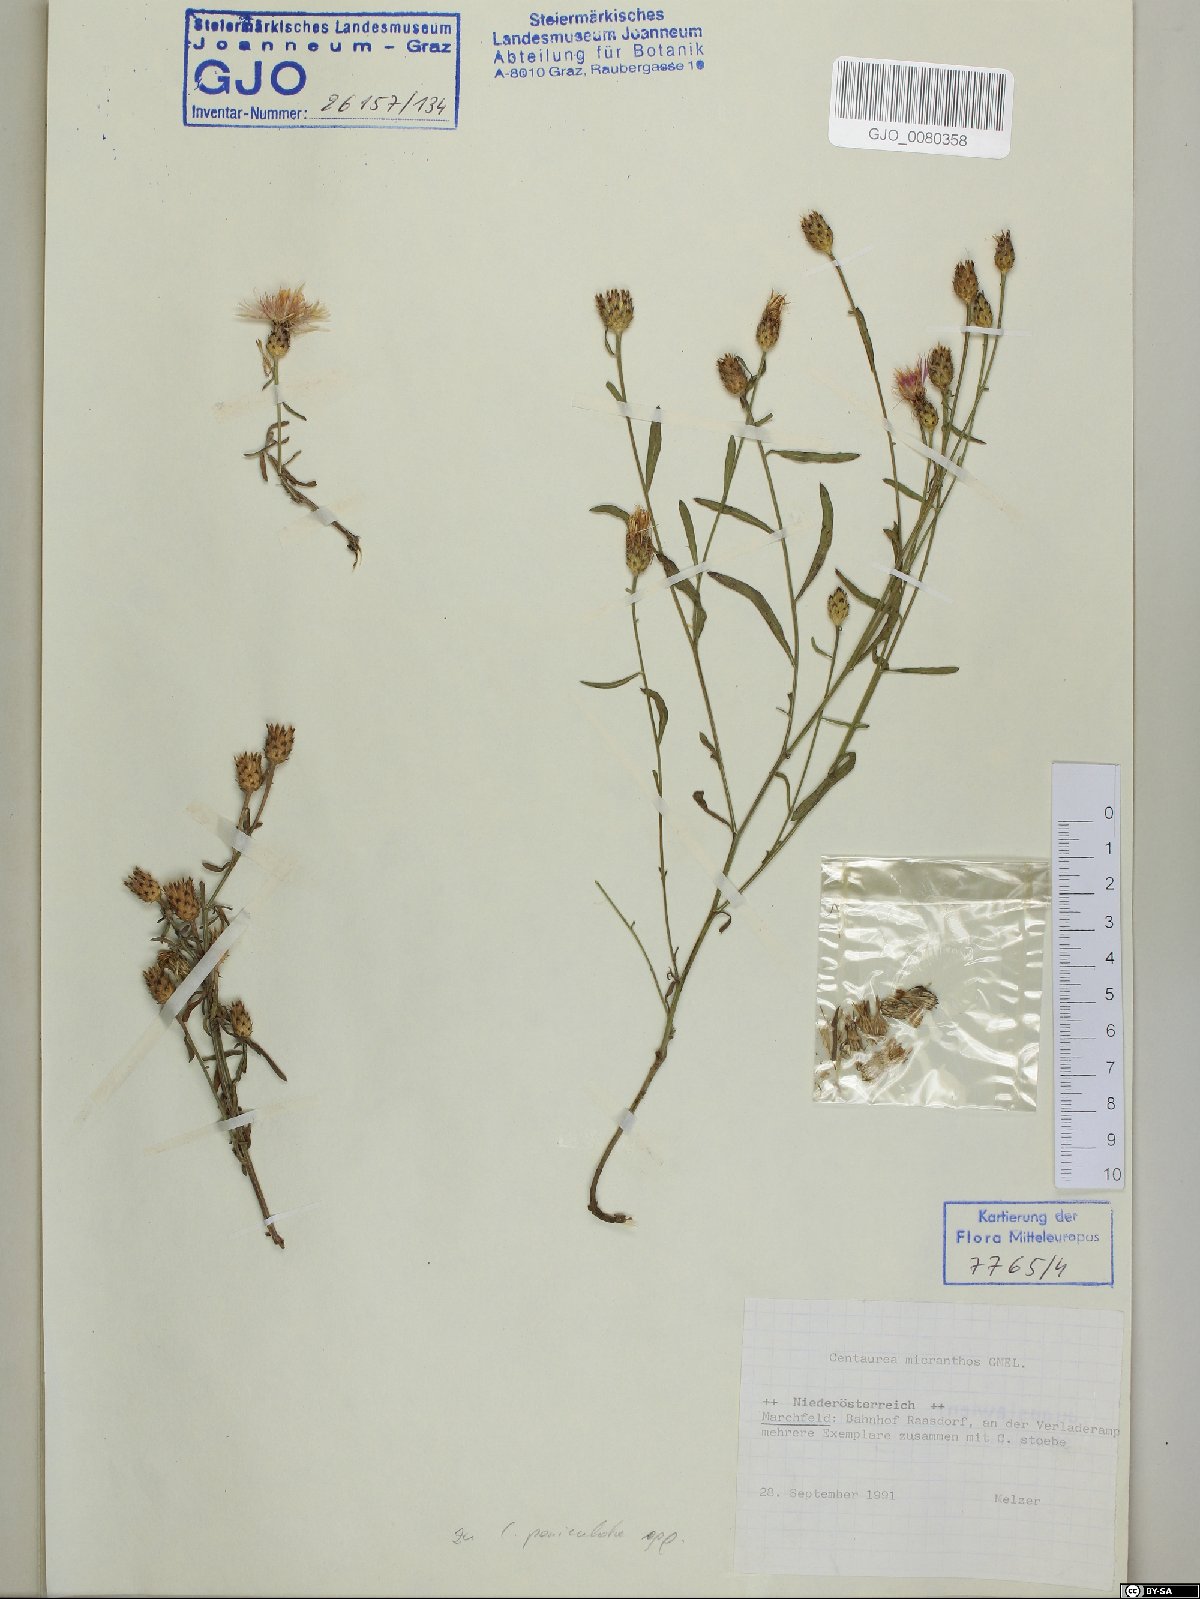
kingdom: Plantae
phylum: Tracheophyta
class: Magnoliopsida
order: Asterales
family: Asteraceae
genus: Centaurea
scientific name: Centaurea micranthos
